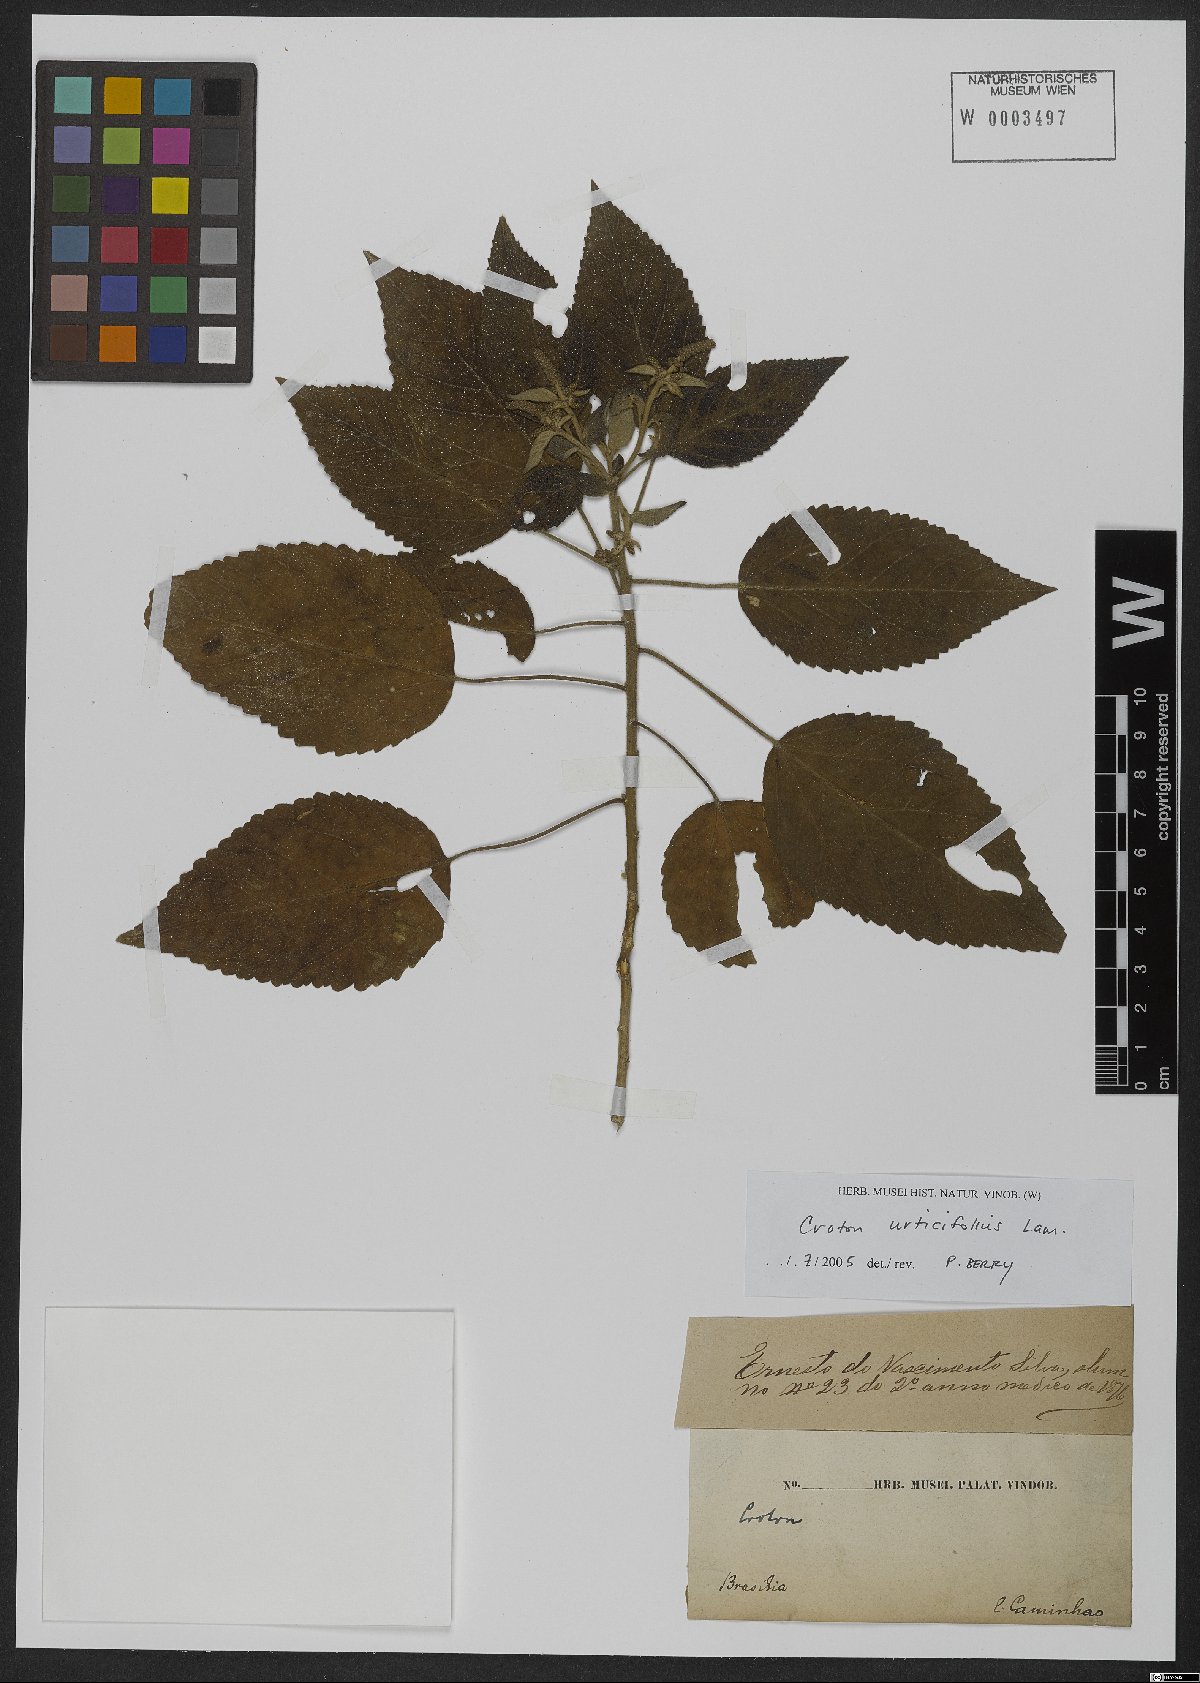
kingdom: Plantae
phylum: Tracheophyta
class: Magnoliopsida
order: Malpighiales
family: Euphorbiaceae
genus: Croton
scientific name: Croton urticifolius
